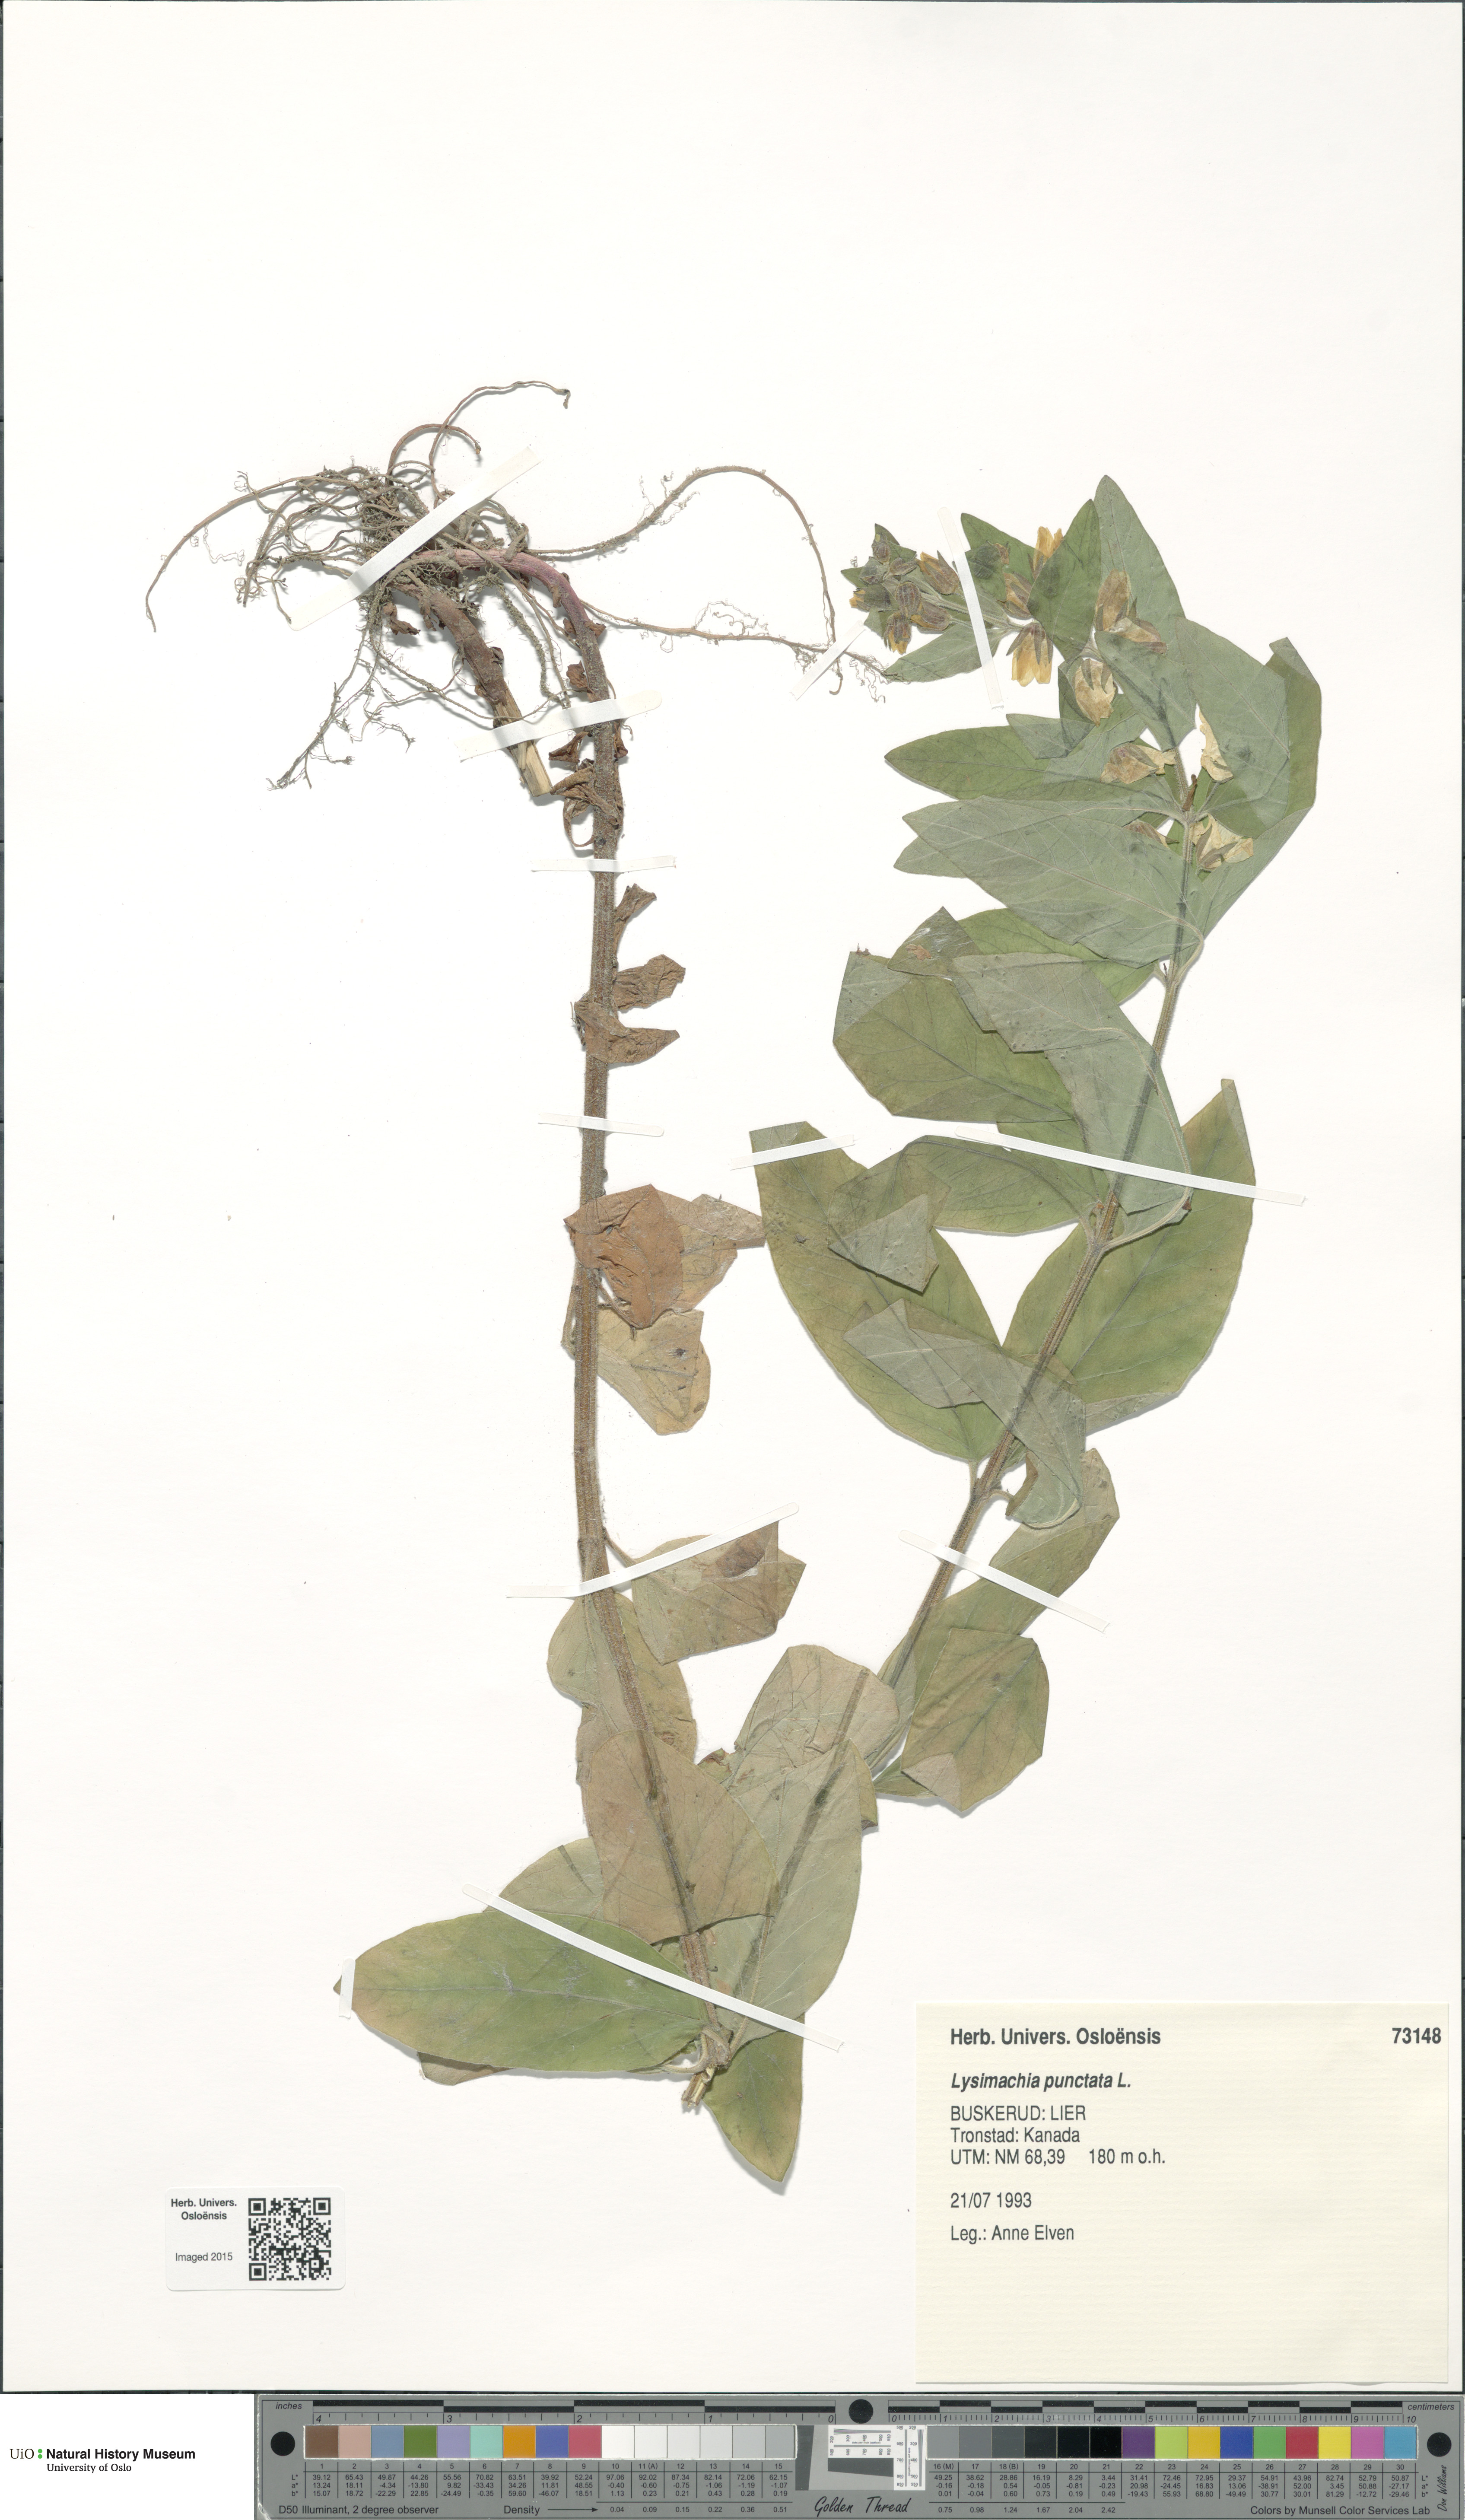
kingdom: Plantae
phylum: Tracheophyta
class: Magnoliopsida
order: Ericales
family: Primulaceae
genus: Lysimachia
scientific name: Lysimachia punctata
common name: Dotted loosestrife
